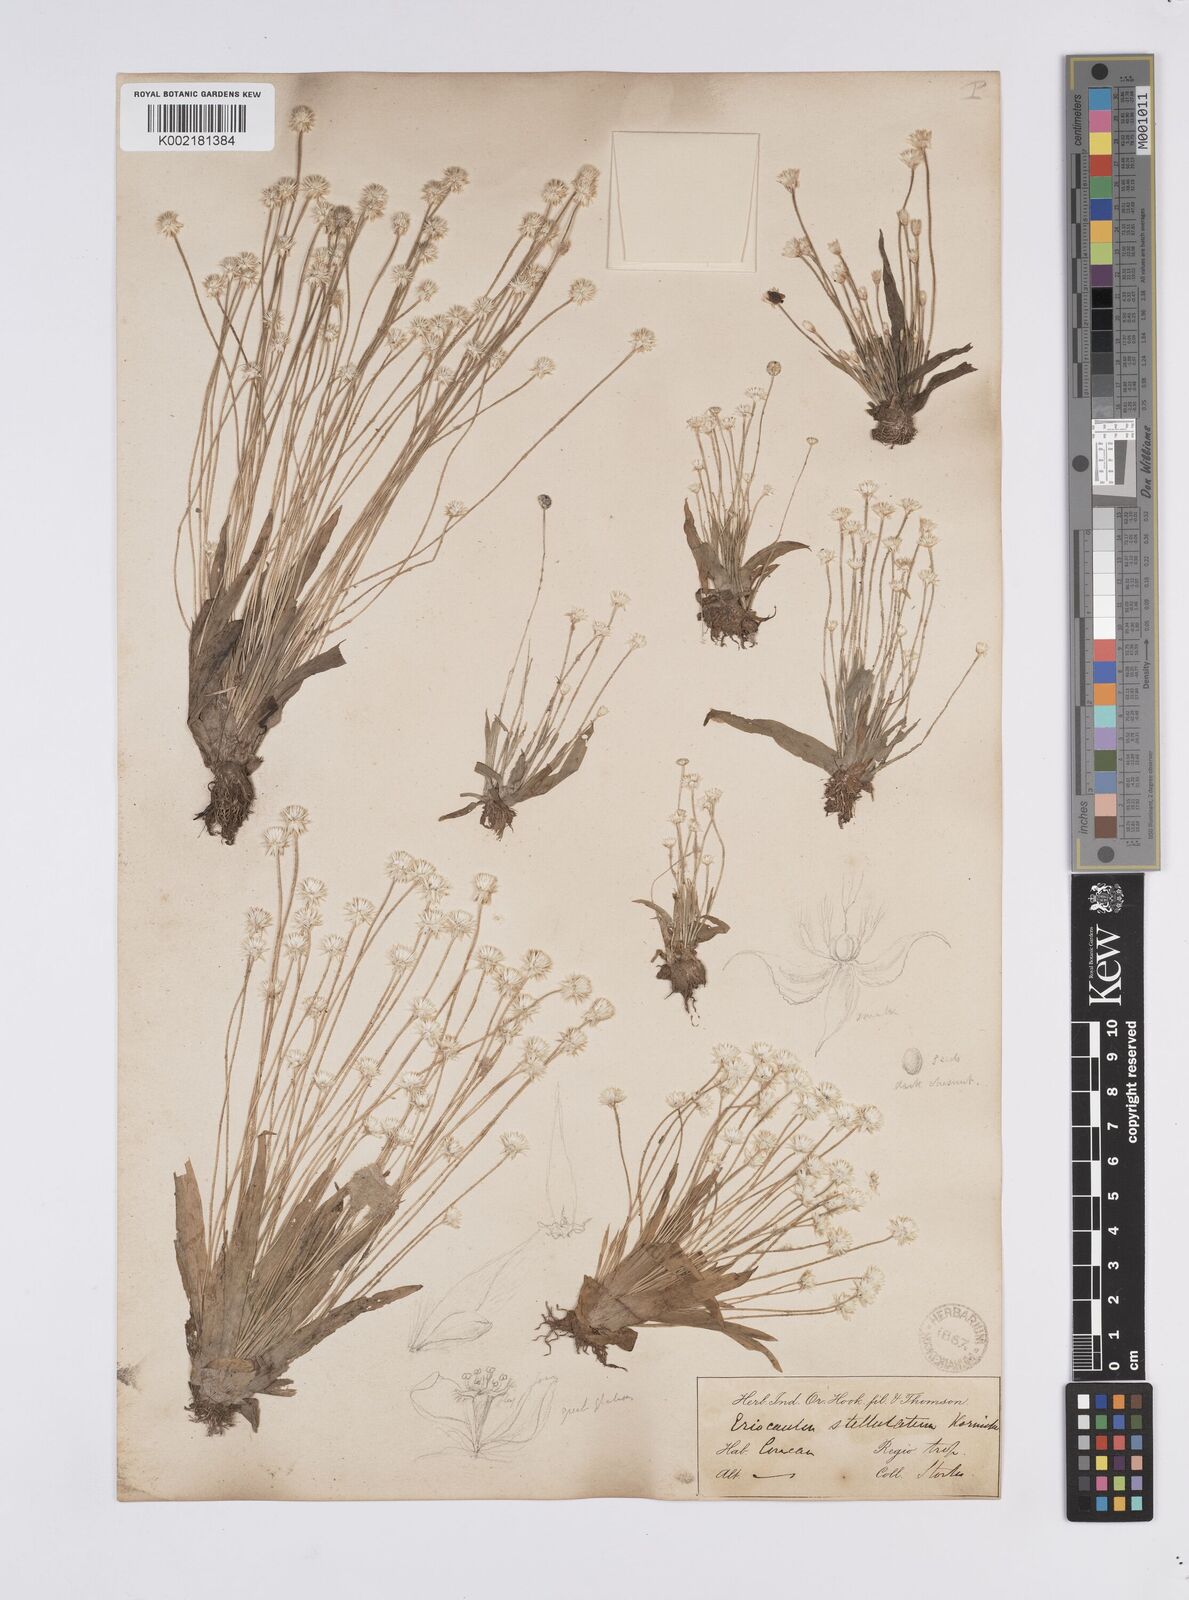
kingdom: Plantae
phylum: Tracheophyta
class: Liliopsida
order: Poales
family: Eriocaulaceae
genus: Eriocaulon
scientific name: Eriocaulon stellulatum
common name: Starry pipewort
